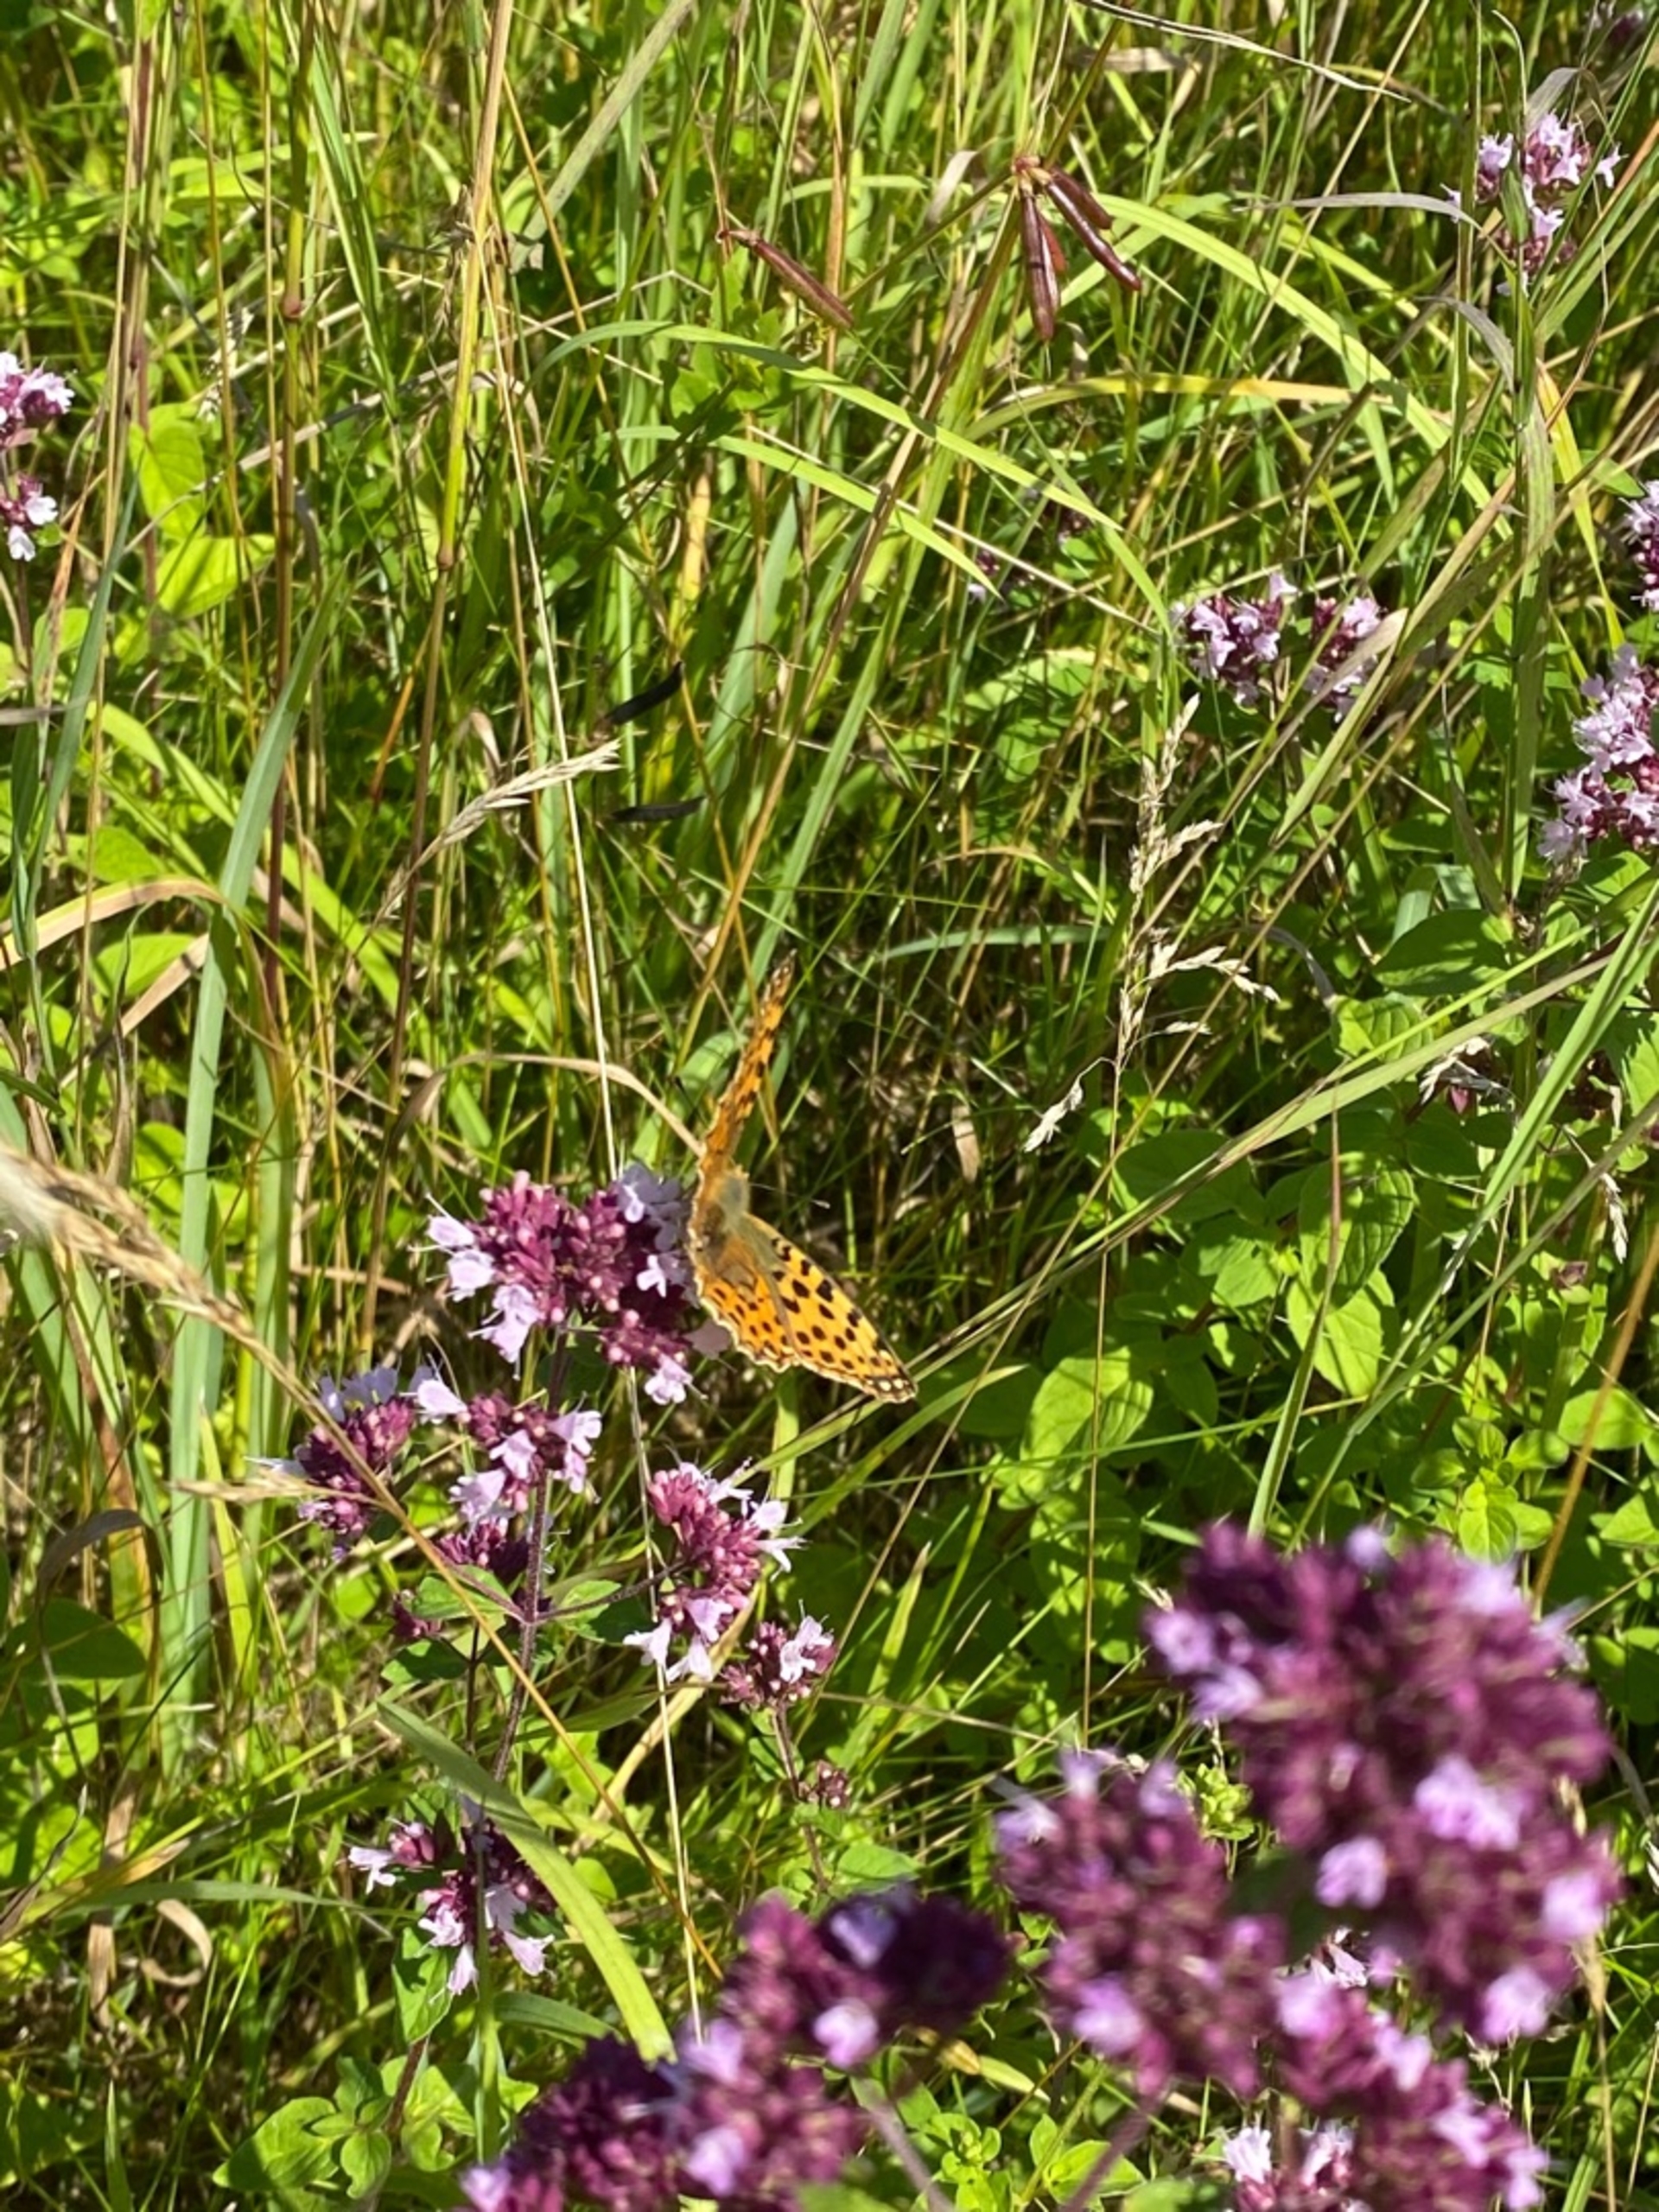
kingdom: Animalia
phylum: Arthropoda
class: Insecta
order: Lepidoptera
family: Nymphalidae
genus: Issoria
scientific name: Issoria lathonia
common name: Storplettet perlemorsommerfugl
